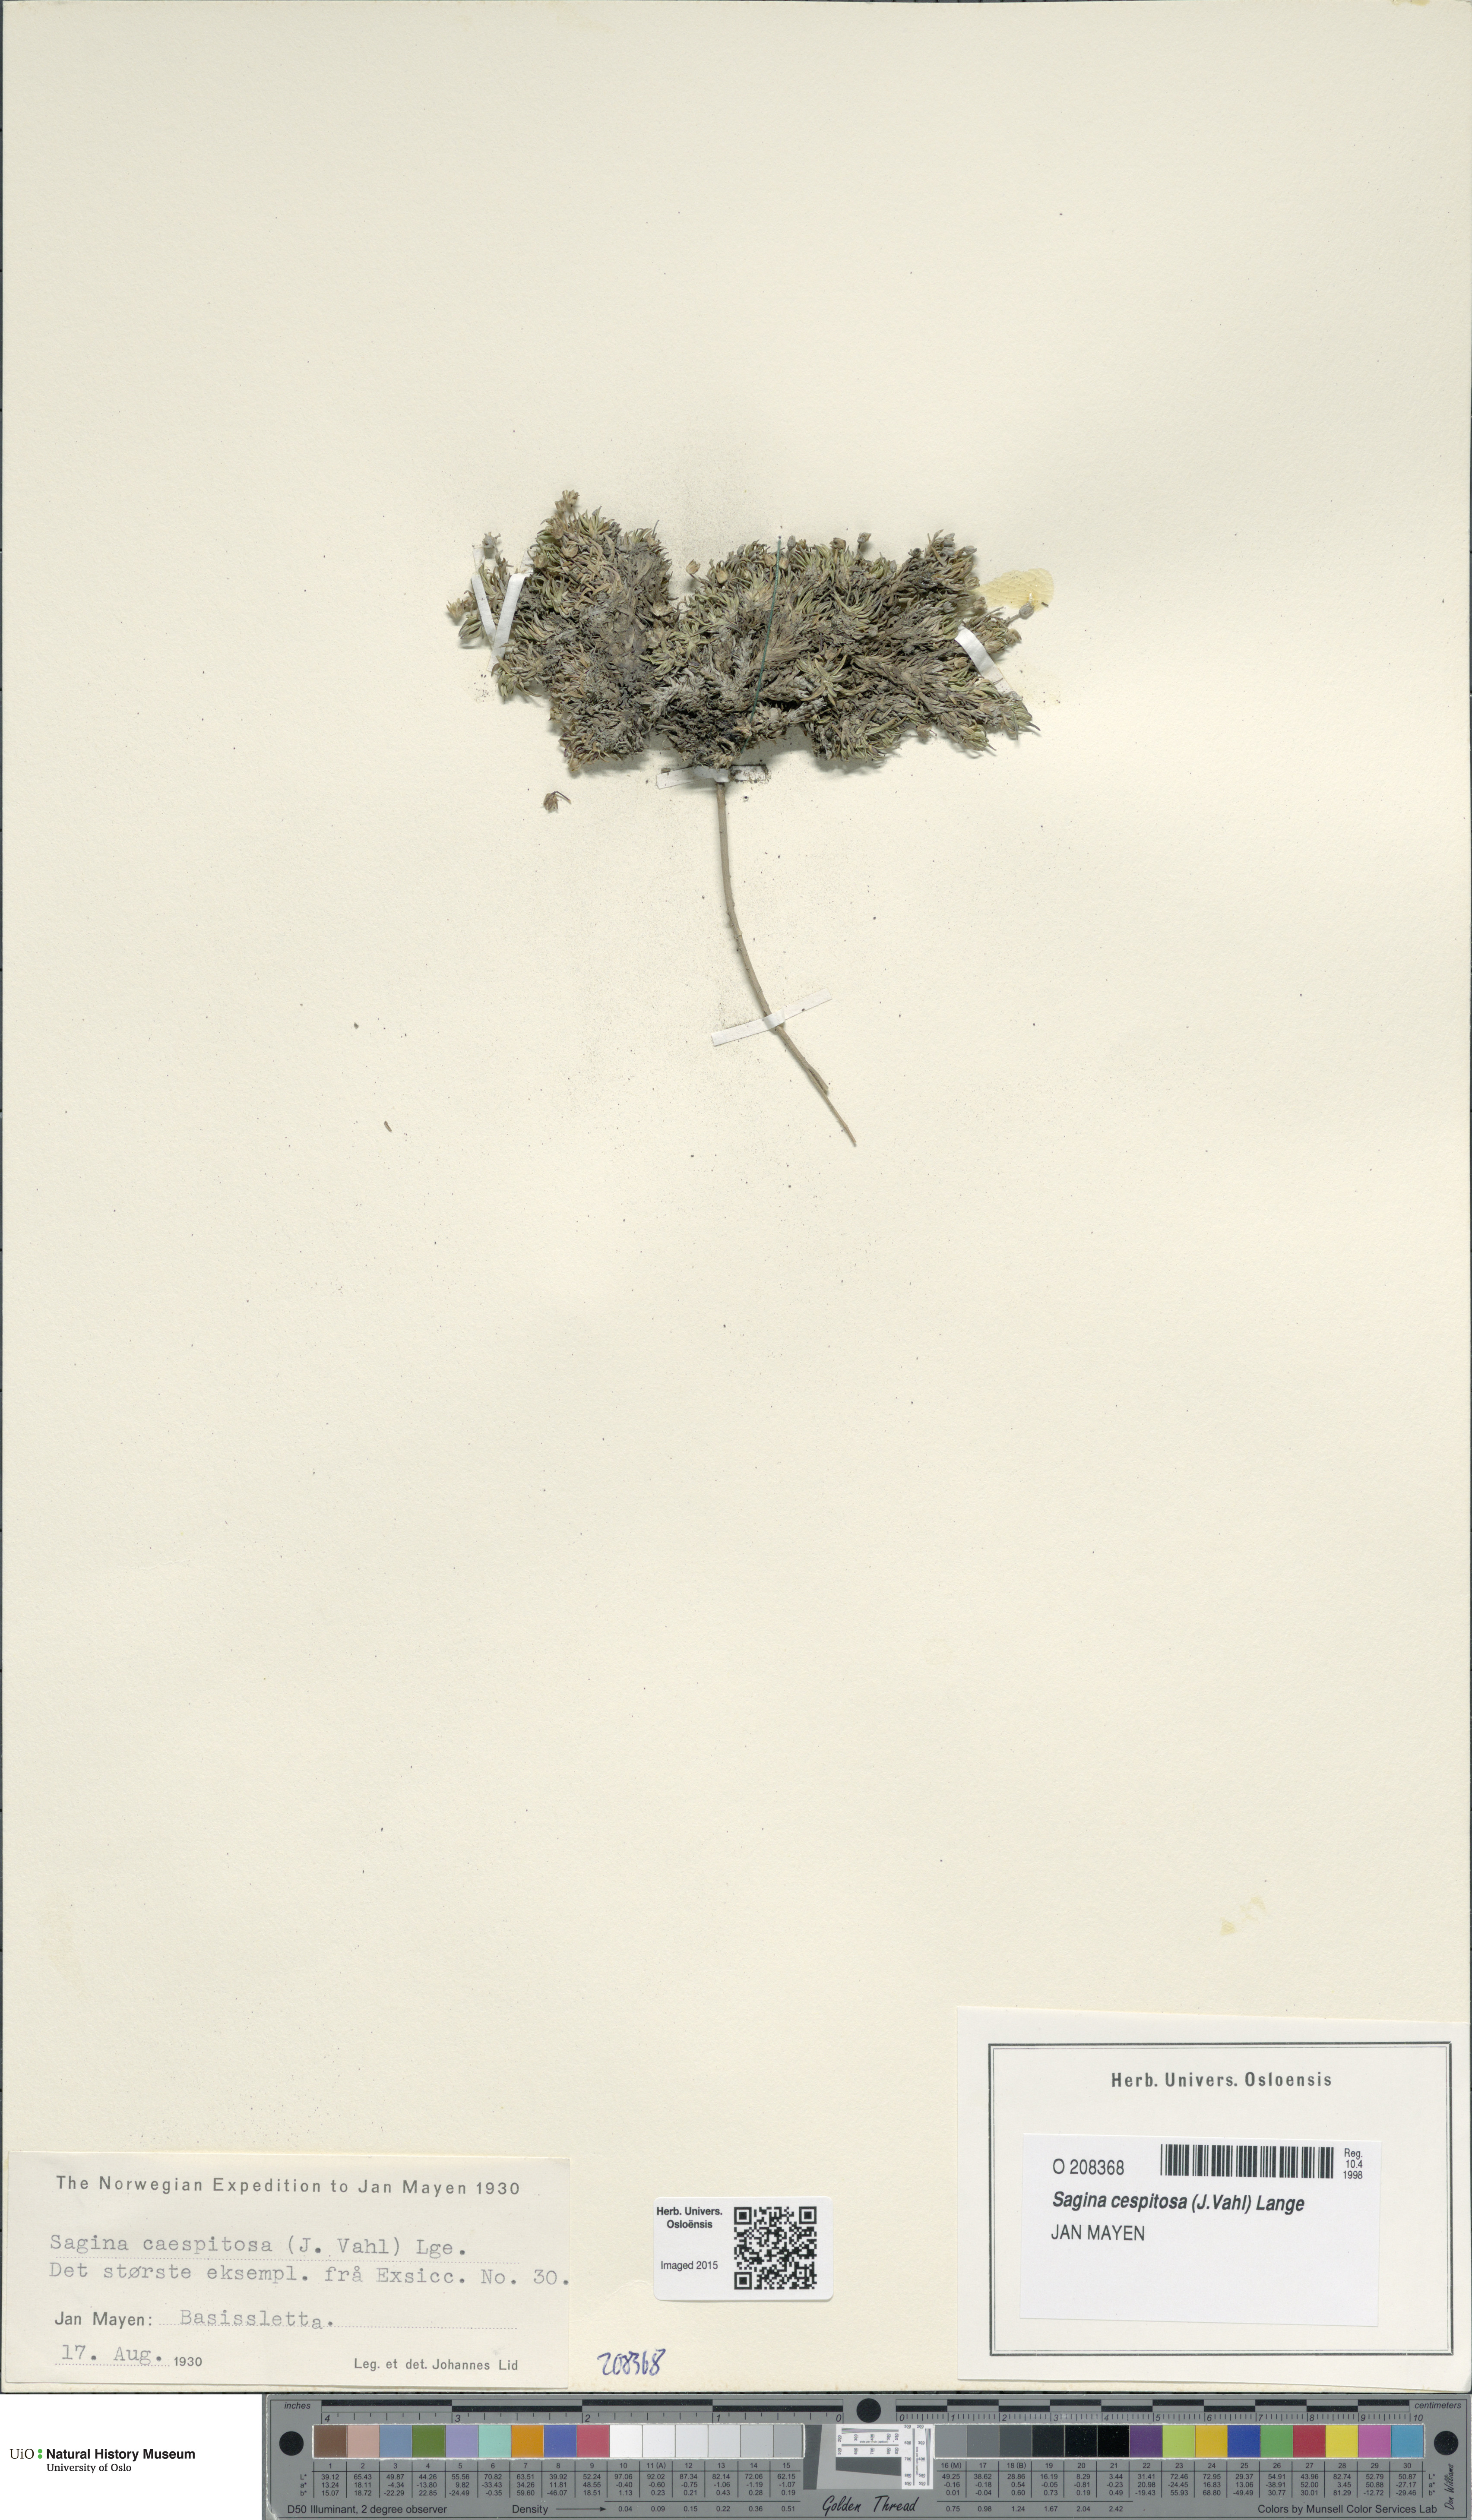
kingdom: Plantae
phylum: Tracheophyta
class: Magnoliopsida
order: Caryophyllales
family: Caryophyllaceae
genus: Sagina
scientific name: Sagina caespitosa
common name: Tufted pearlwort
